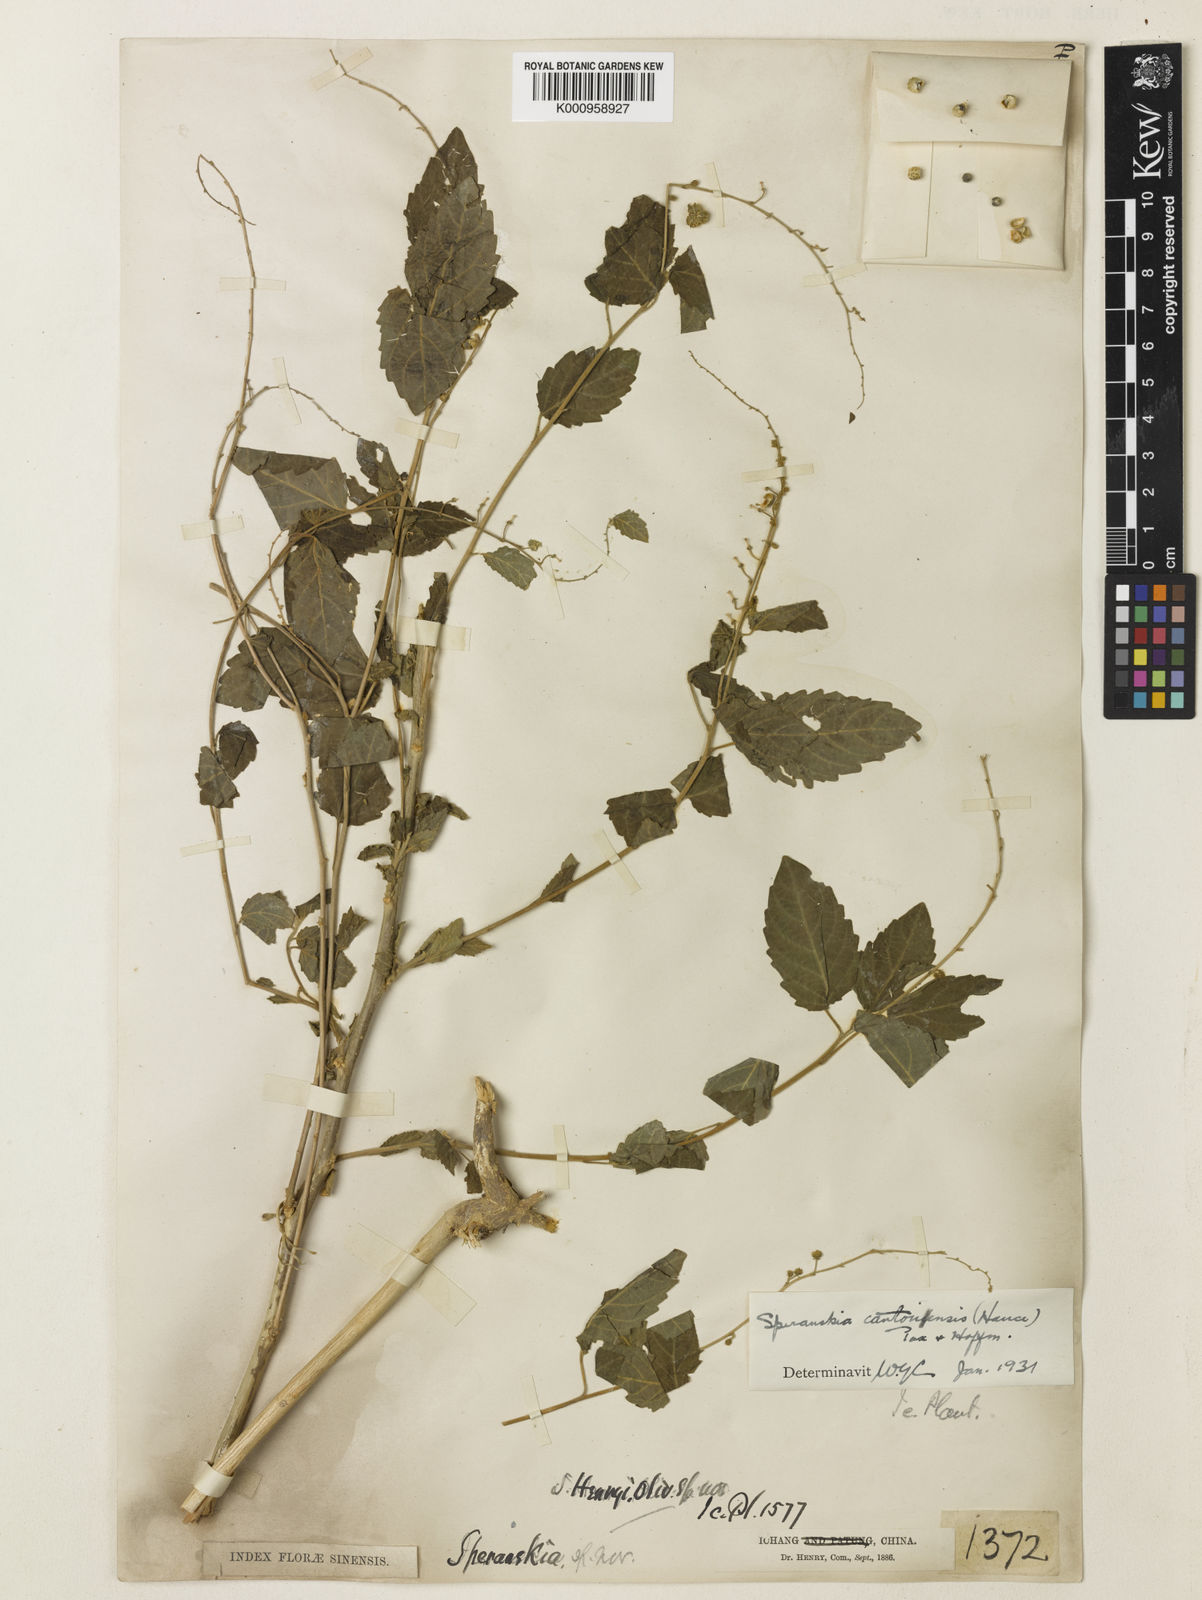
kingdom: Plantae
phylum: Tracheophyta
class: Magnoliopsida
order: Malpighiales
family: Euphorbiaceae
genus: Speranskia
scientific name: Speranskia cantonensis
